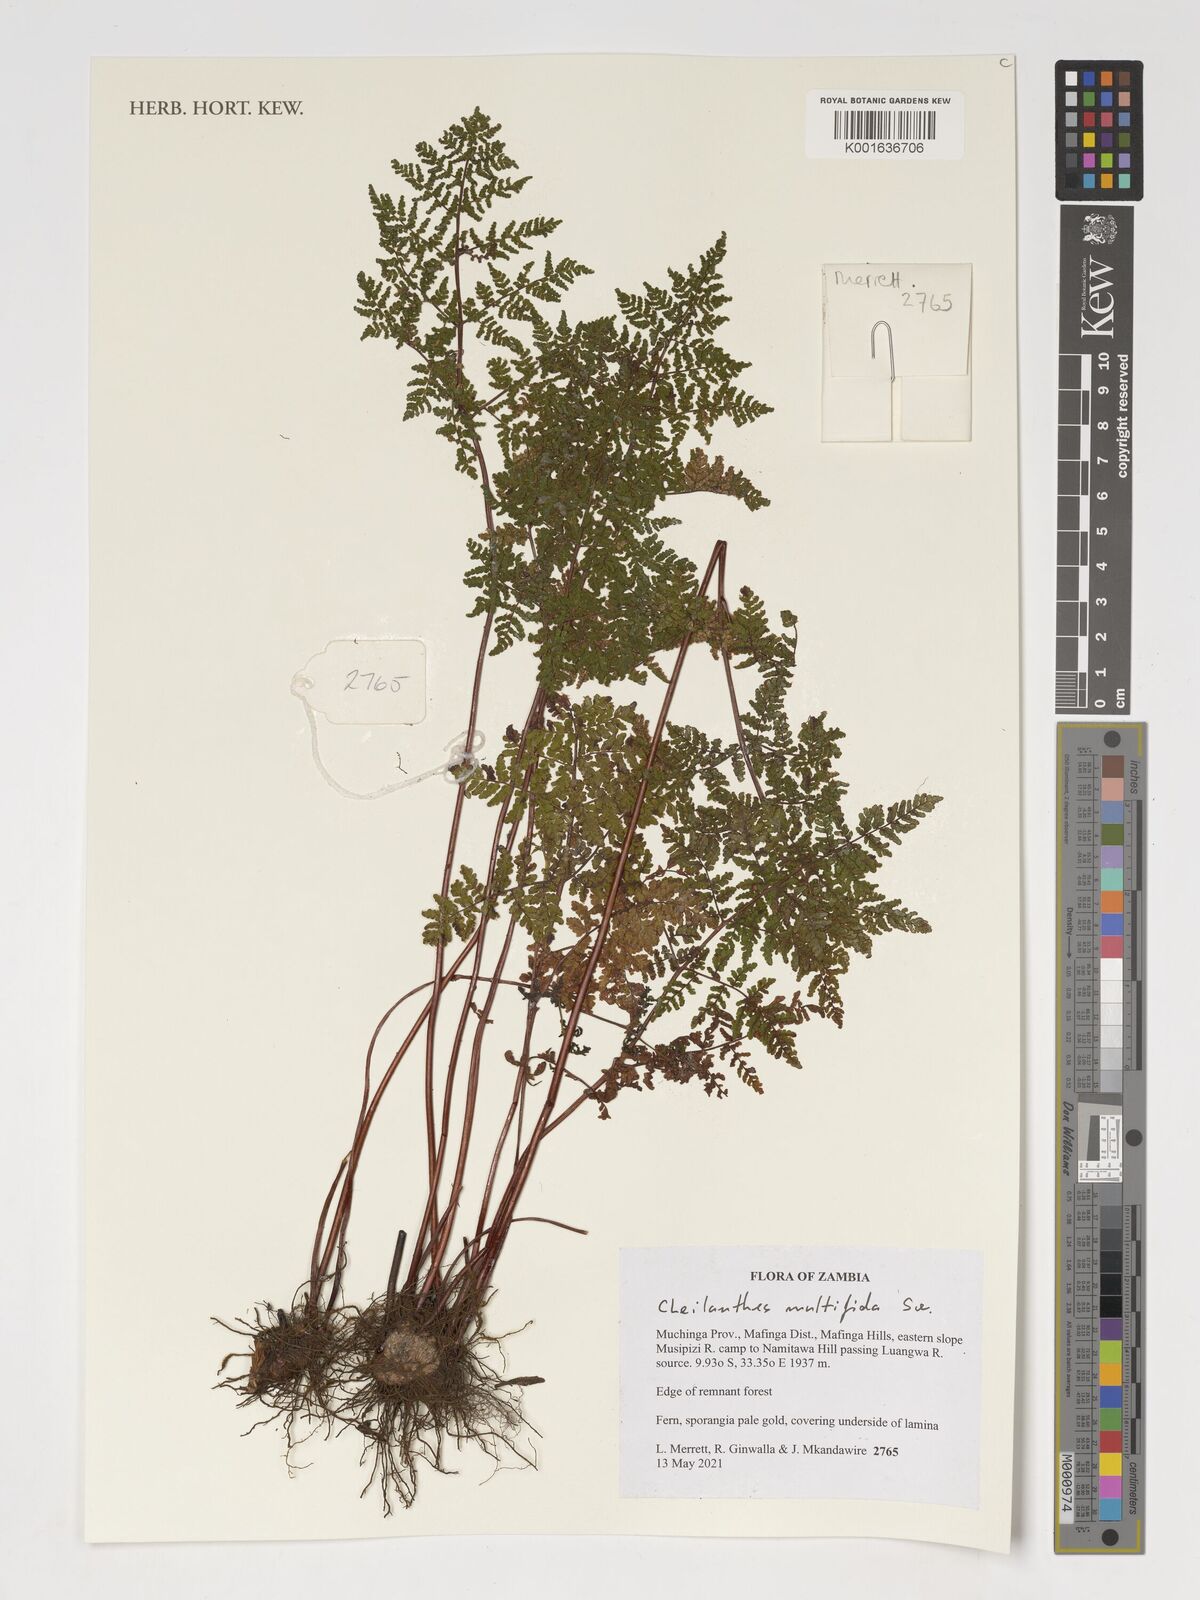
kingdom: Plantae
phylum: Tracheophyta
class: Polypodiopsida
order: Polypodiales
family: Pteridaceae
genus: Cheilanthes
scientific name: Cheilanthes multifida
